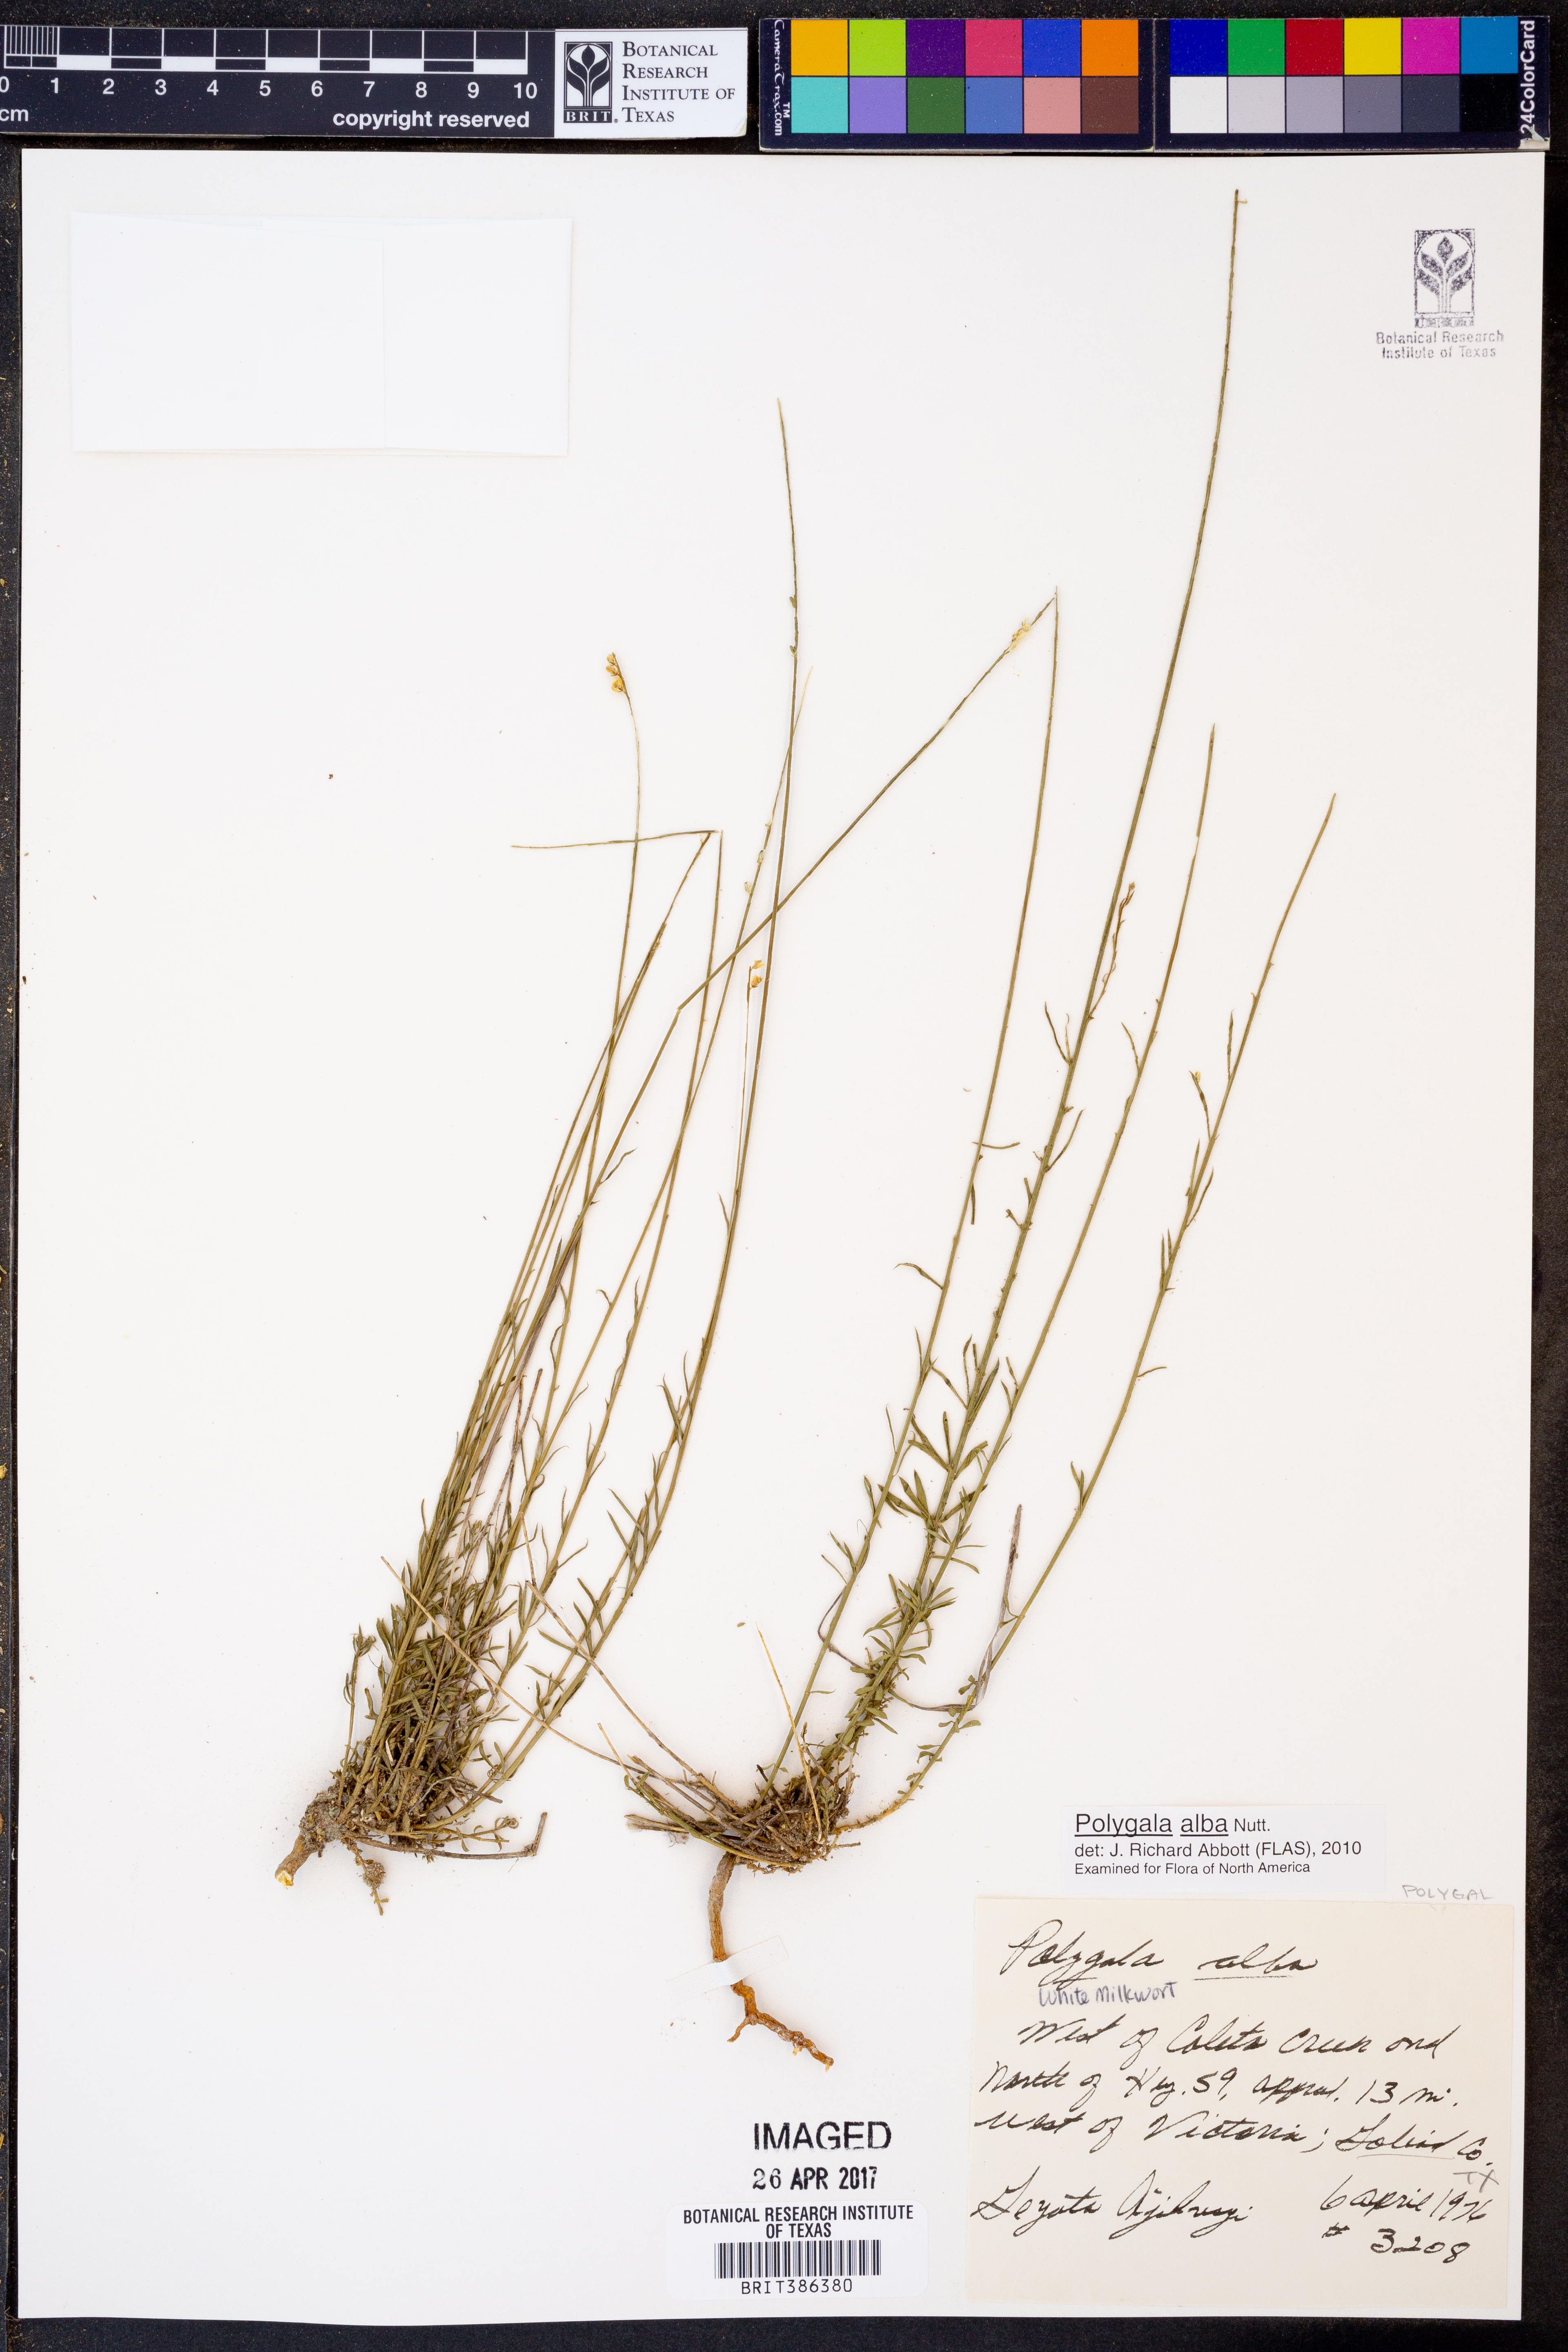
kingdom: Plantae
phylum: Tracheophyta
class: Magnoliopsida
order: Fabales
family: Polygalaceae
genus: Polygala
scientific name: Polygala alba
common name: White milkwort
